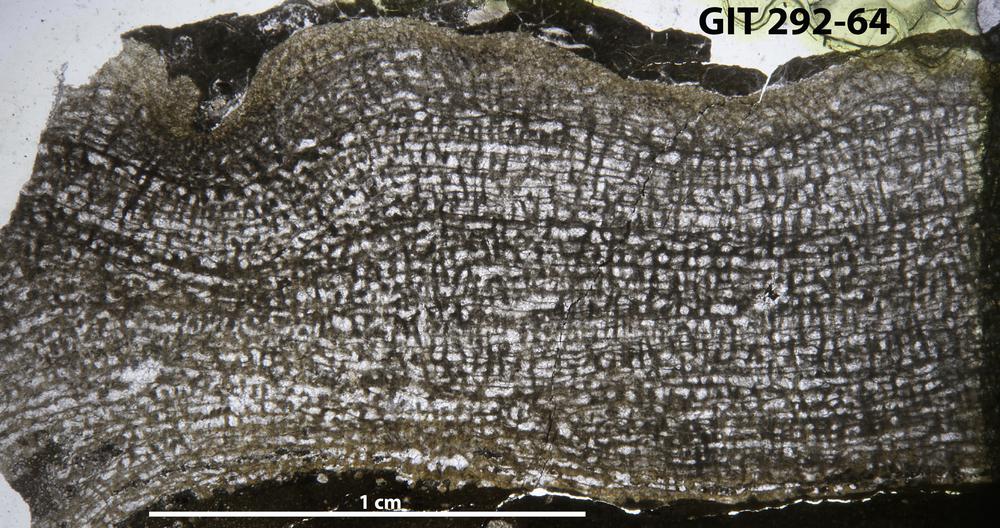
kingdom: Animalia
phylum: Porifera
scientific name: Porifera
